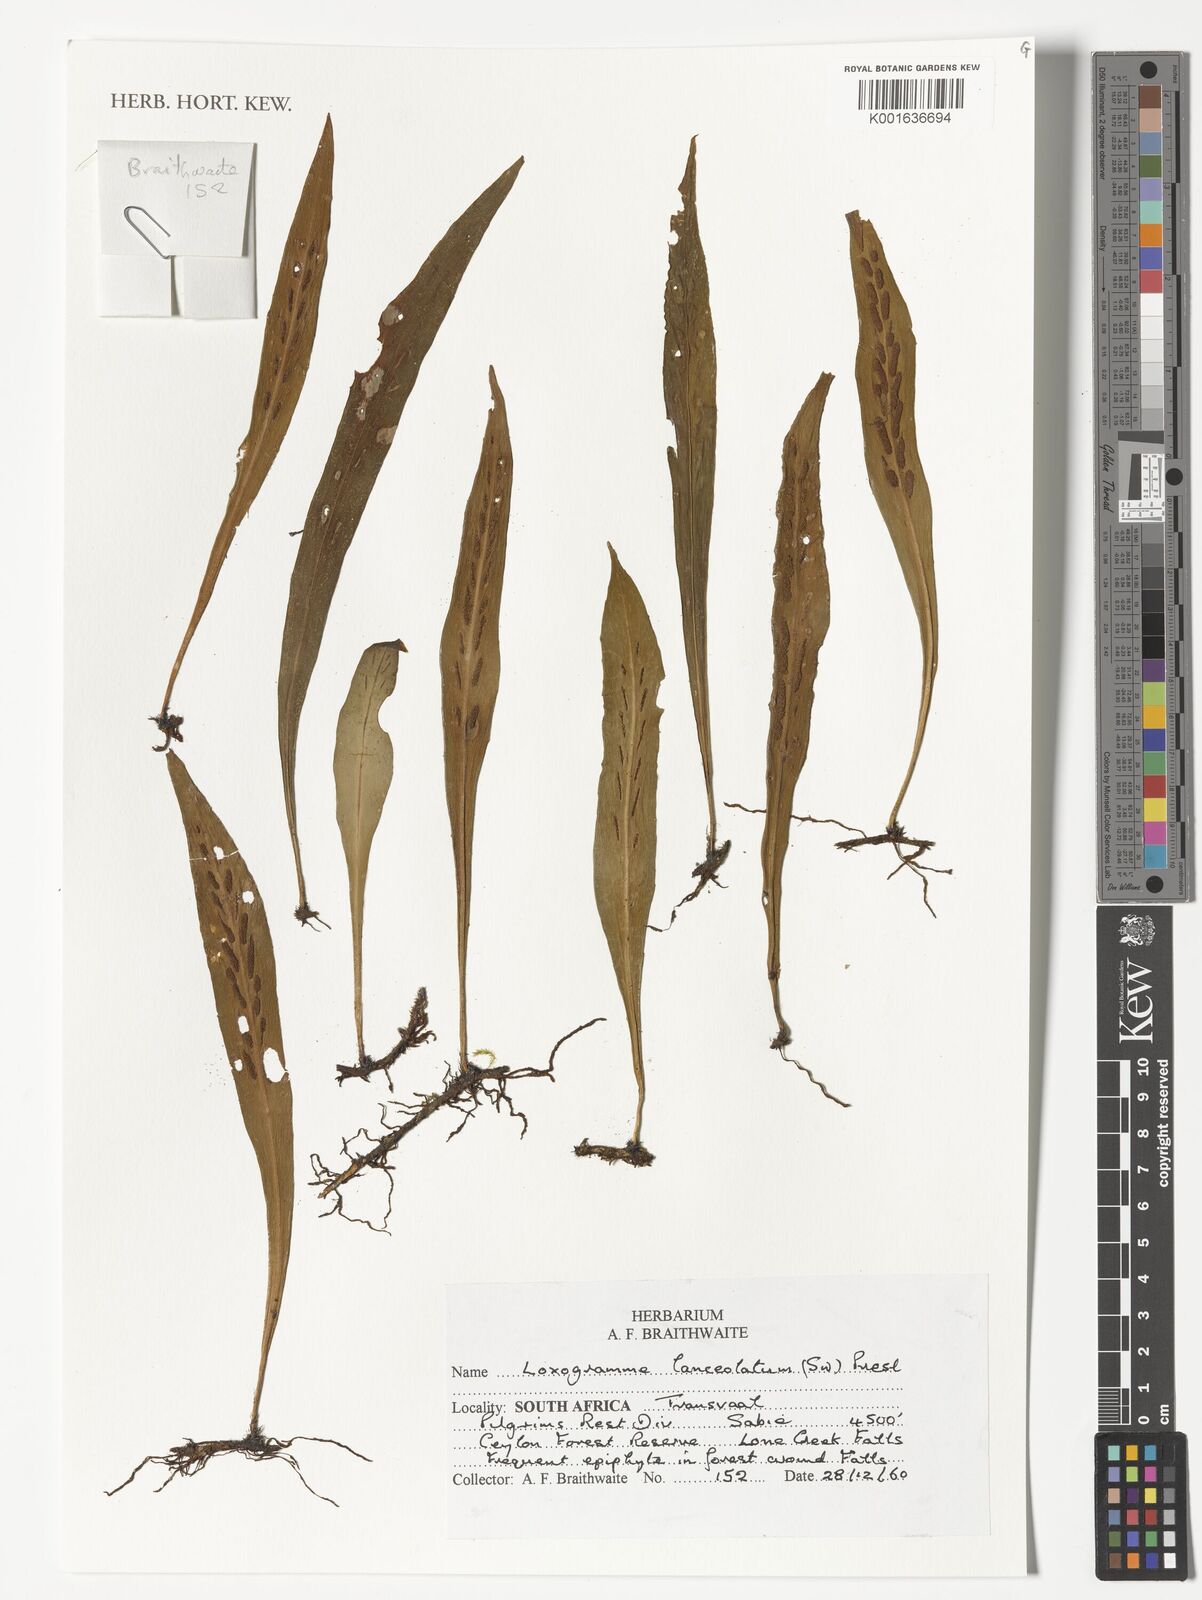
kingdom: Plantae
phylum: Tracheophyta
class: Polypodiopsida
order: Polypodiales
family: Polypodiaceae
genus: Loxogramme
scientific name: Loxogramme
